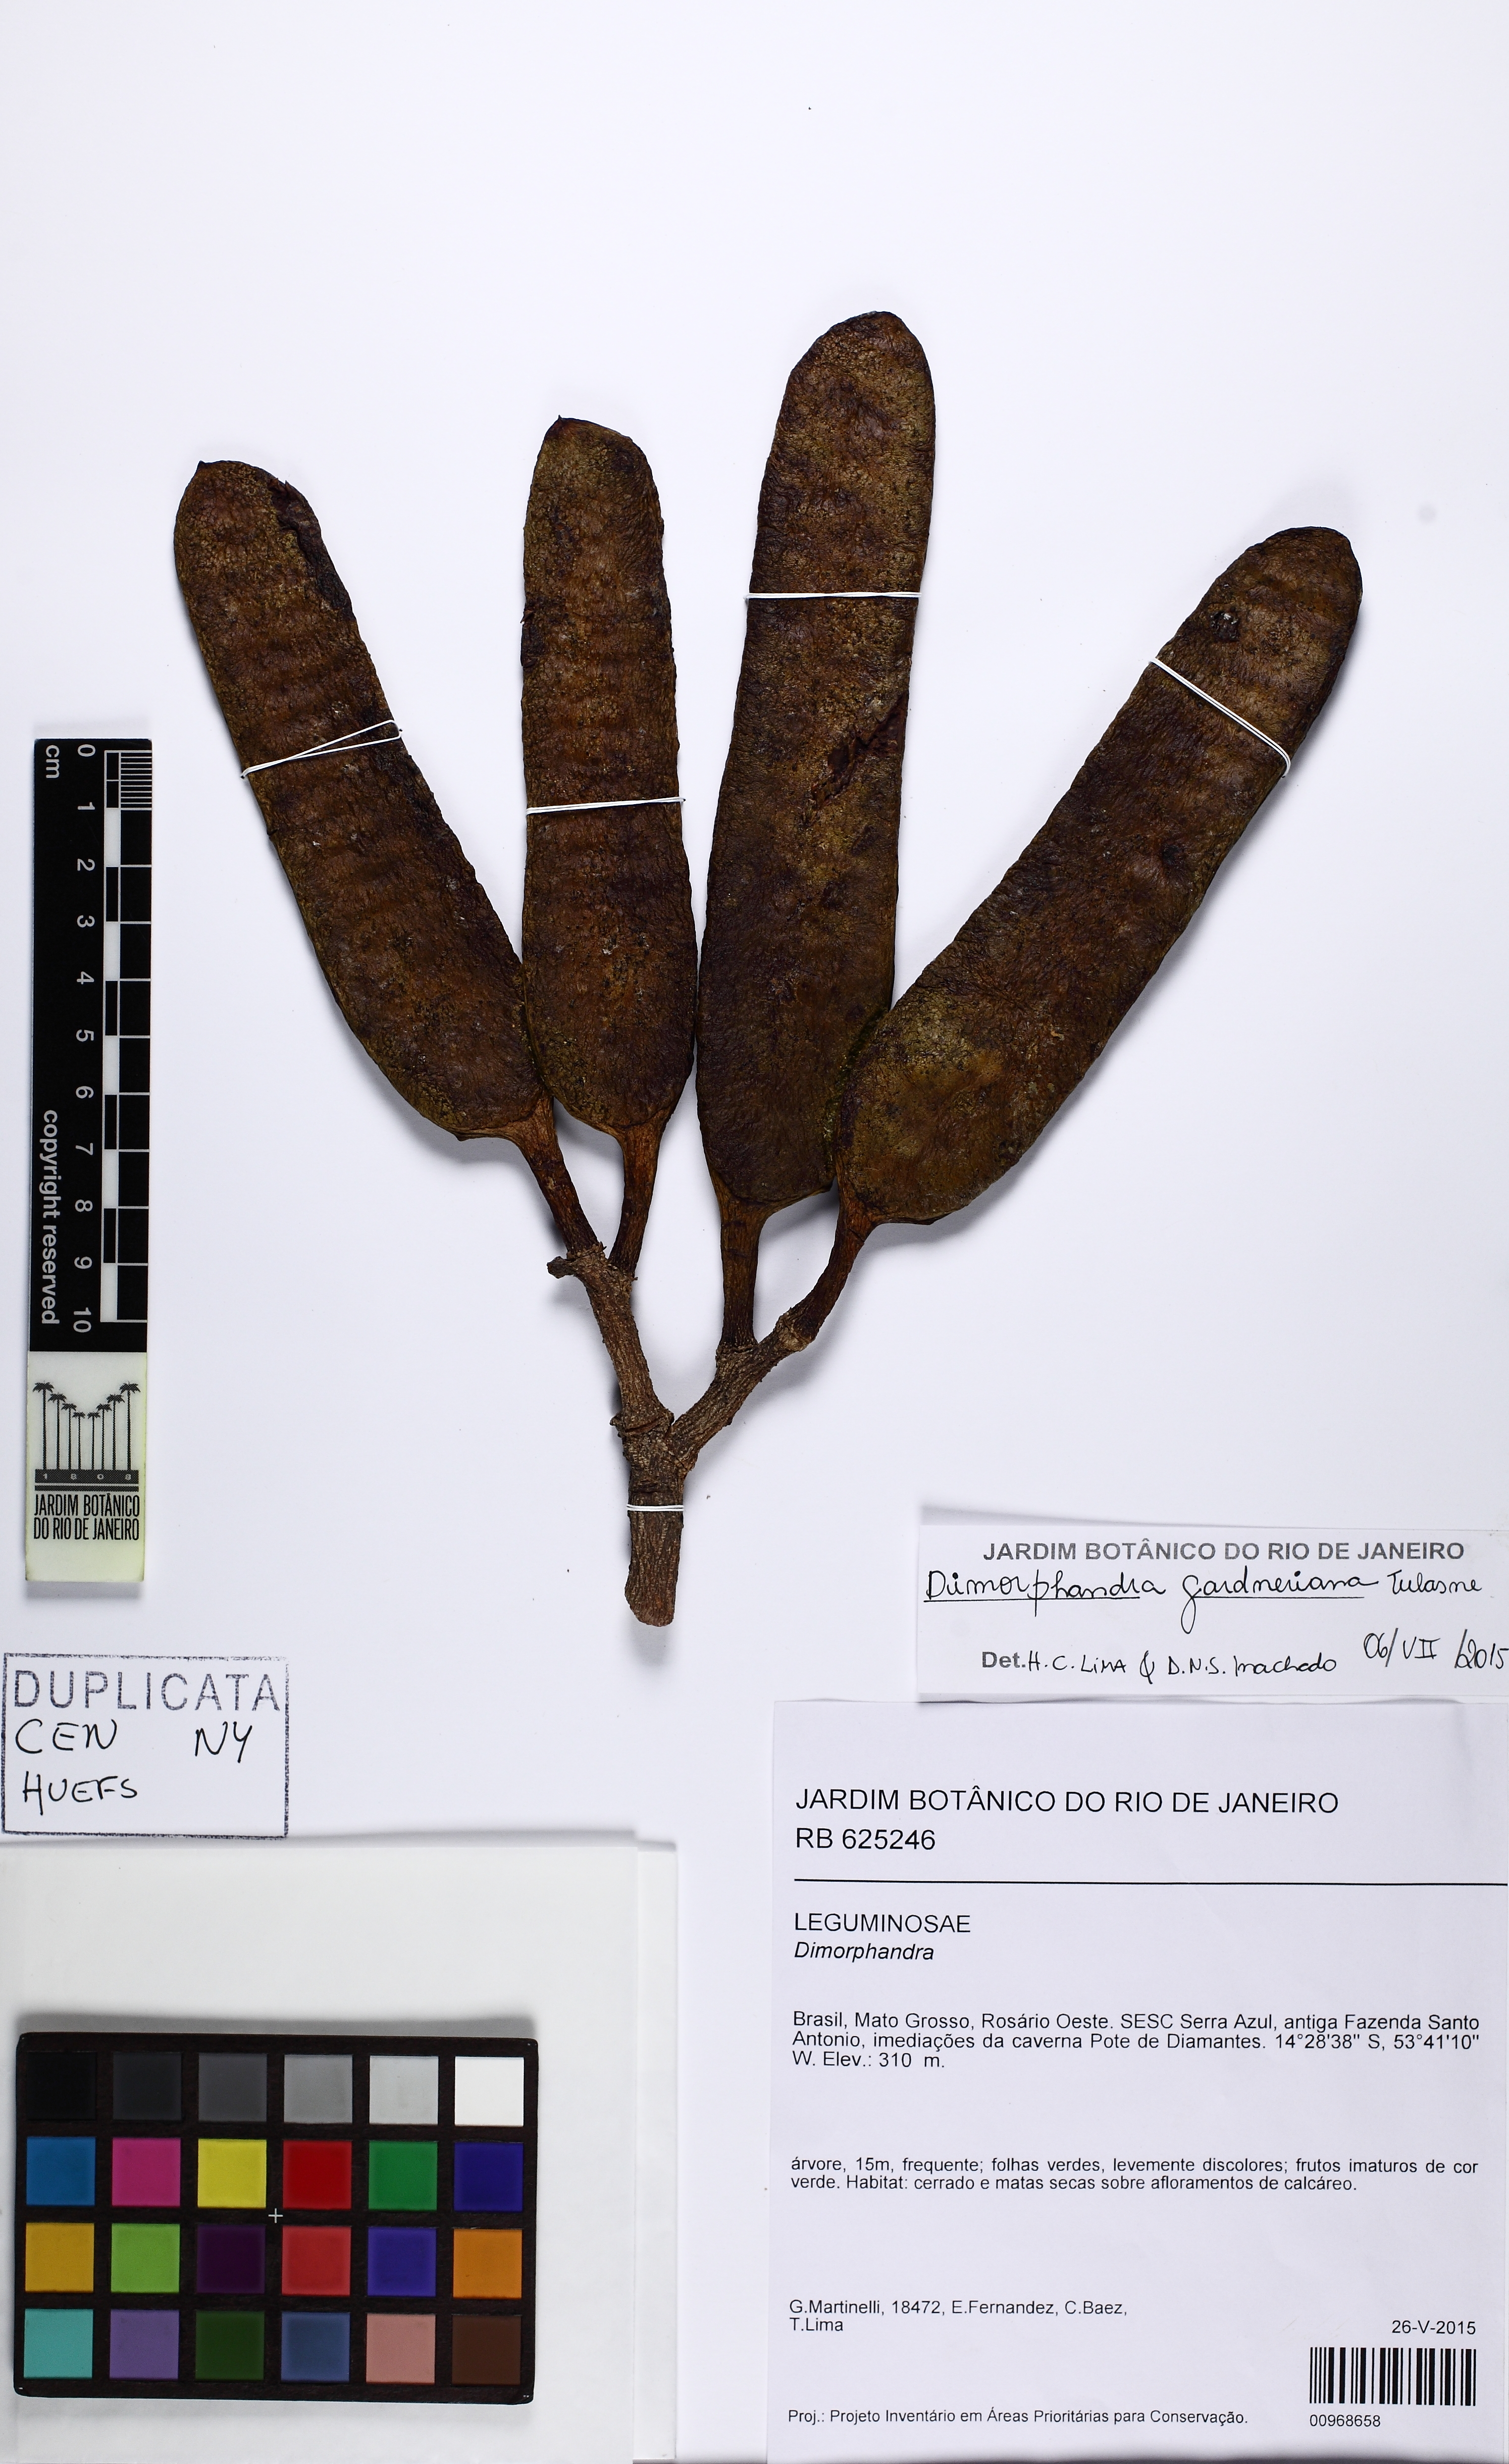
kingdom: Plantae
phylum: Tracheophyta
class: Magnoliopsida
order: Fabales
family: Fabaceae
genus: Dimorphandra
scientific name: Dimorphandra gardneriana
